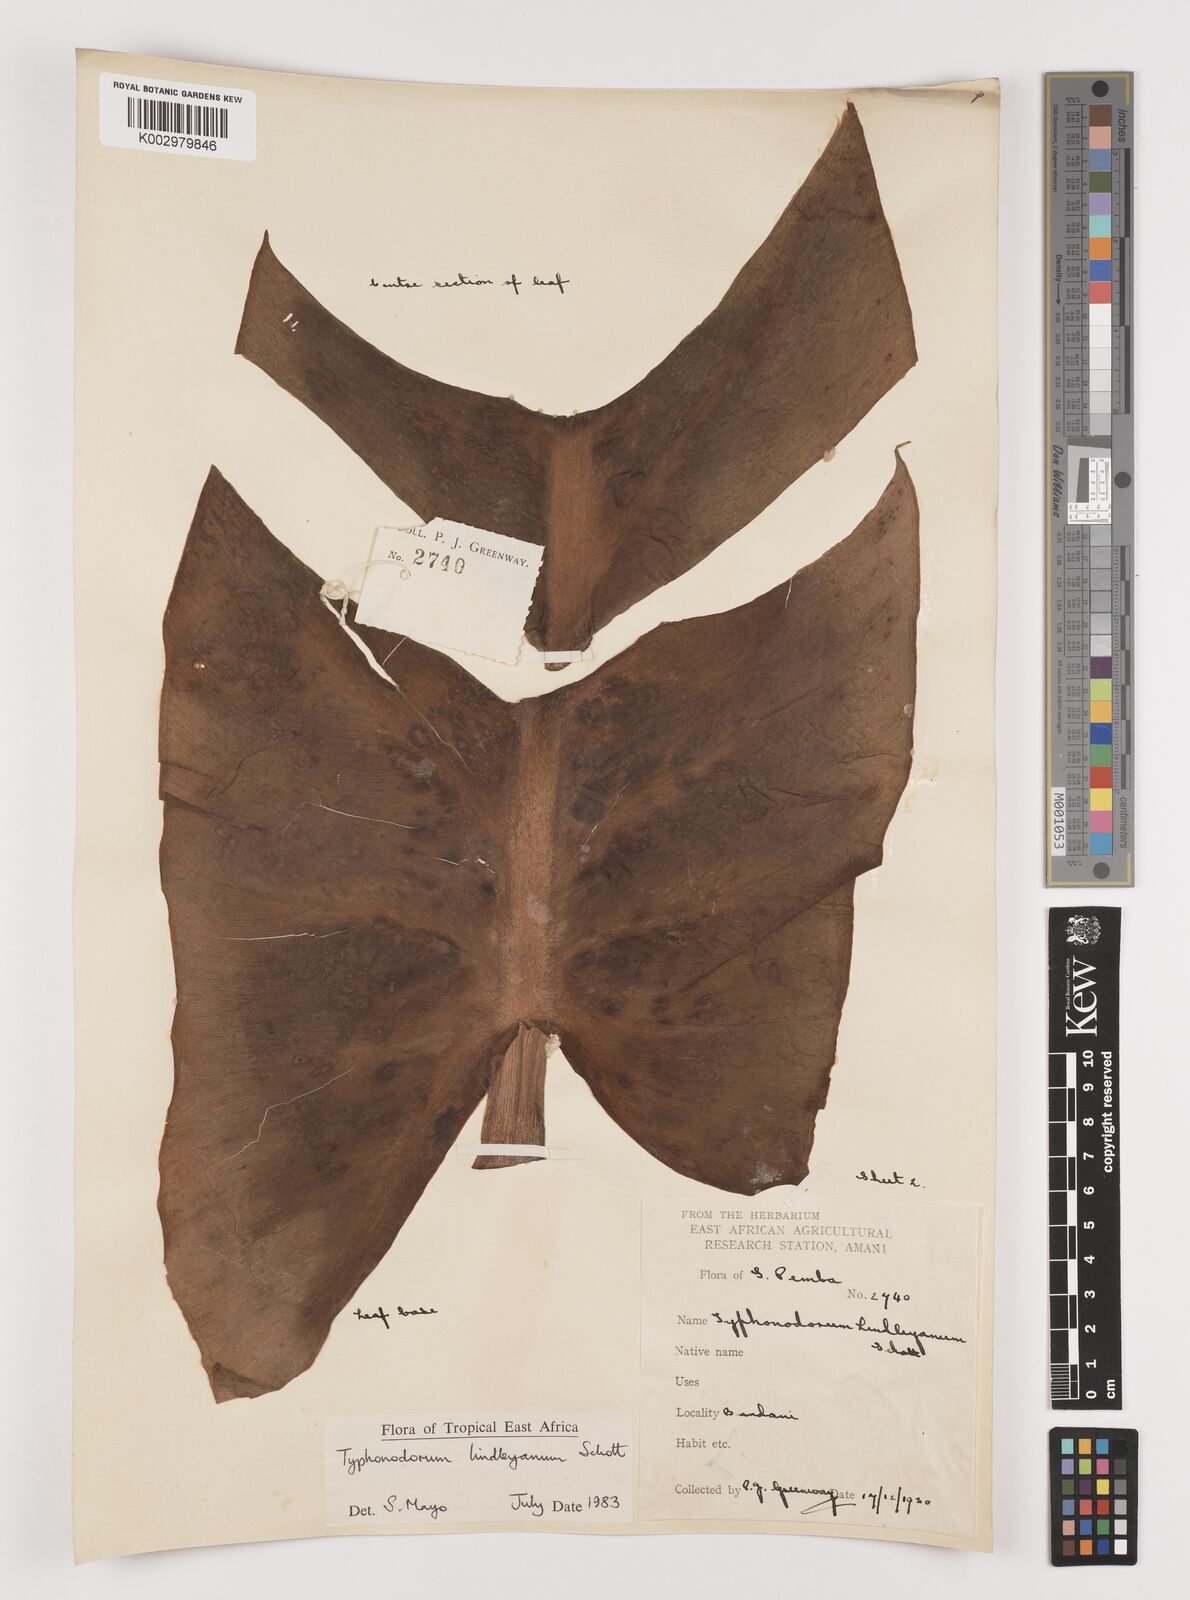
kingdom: Plantae
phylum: Tracheophyta
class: Liliopsida
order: Alismatales
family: Araceae
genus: Typhonodorum
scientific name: Typhonodorum lindleyanum
